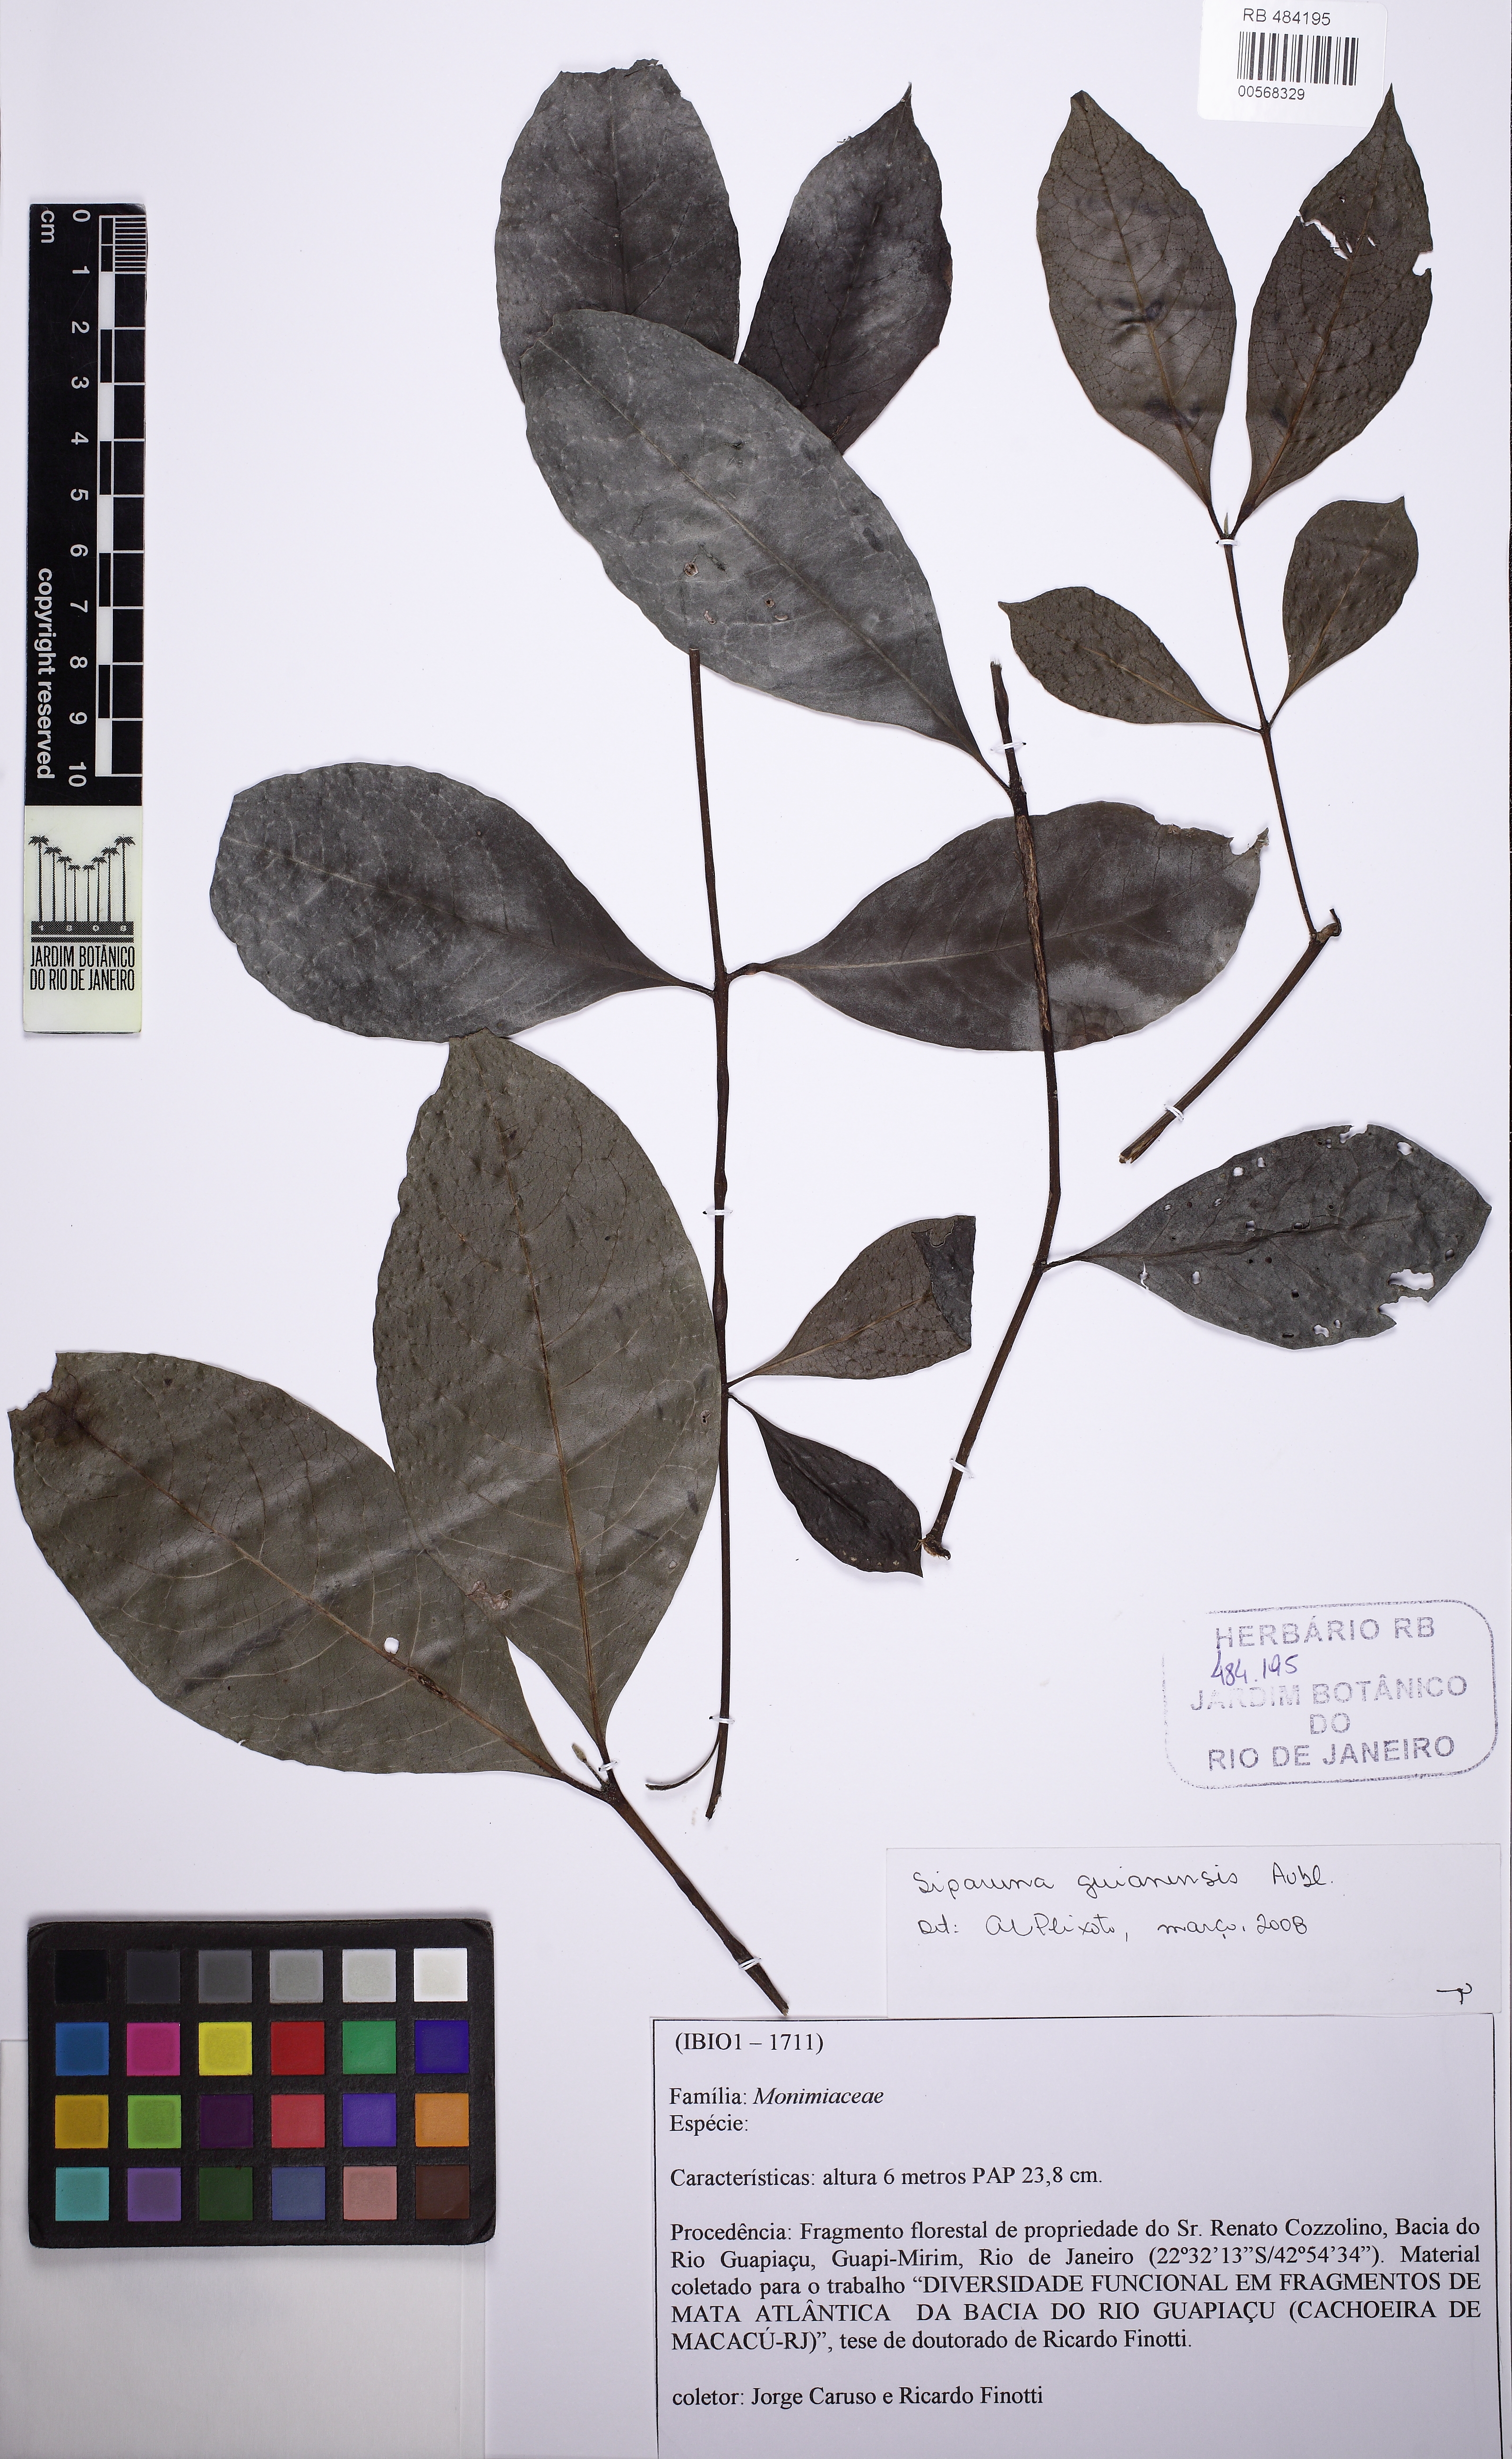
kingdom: Plantae
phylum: Tracheophyta
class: Magnoliopsida
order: Laurales
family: Siparunaceae
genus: Siparuna
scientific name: Siparuna guianensis
